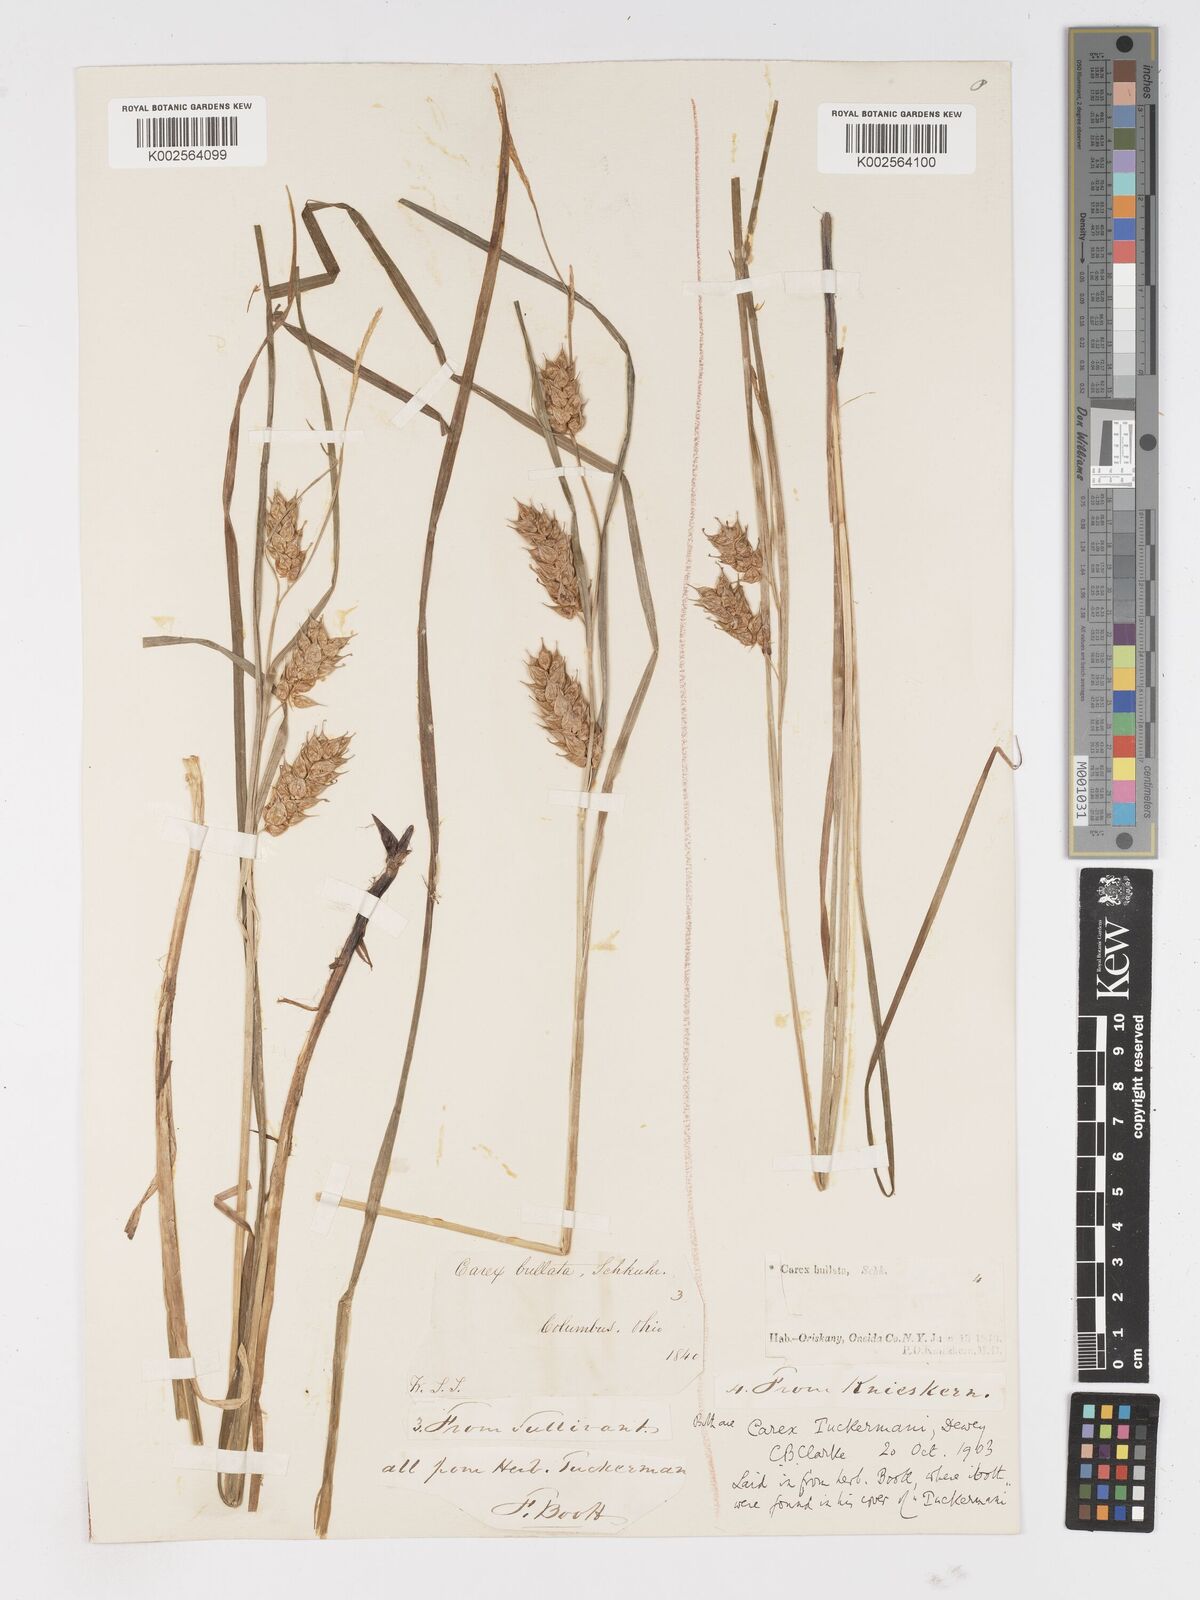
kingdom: Plantae
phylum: Tracheophyta
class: Liliopsida
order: Poales
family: Cyperaceae
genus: Carex
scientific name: Carex tuckermanii
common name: Tuckerman's sedge
